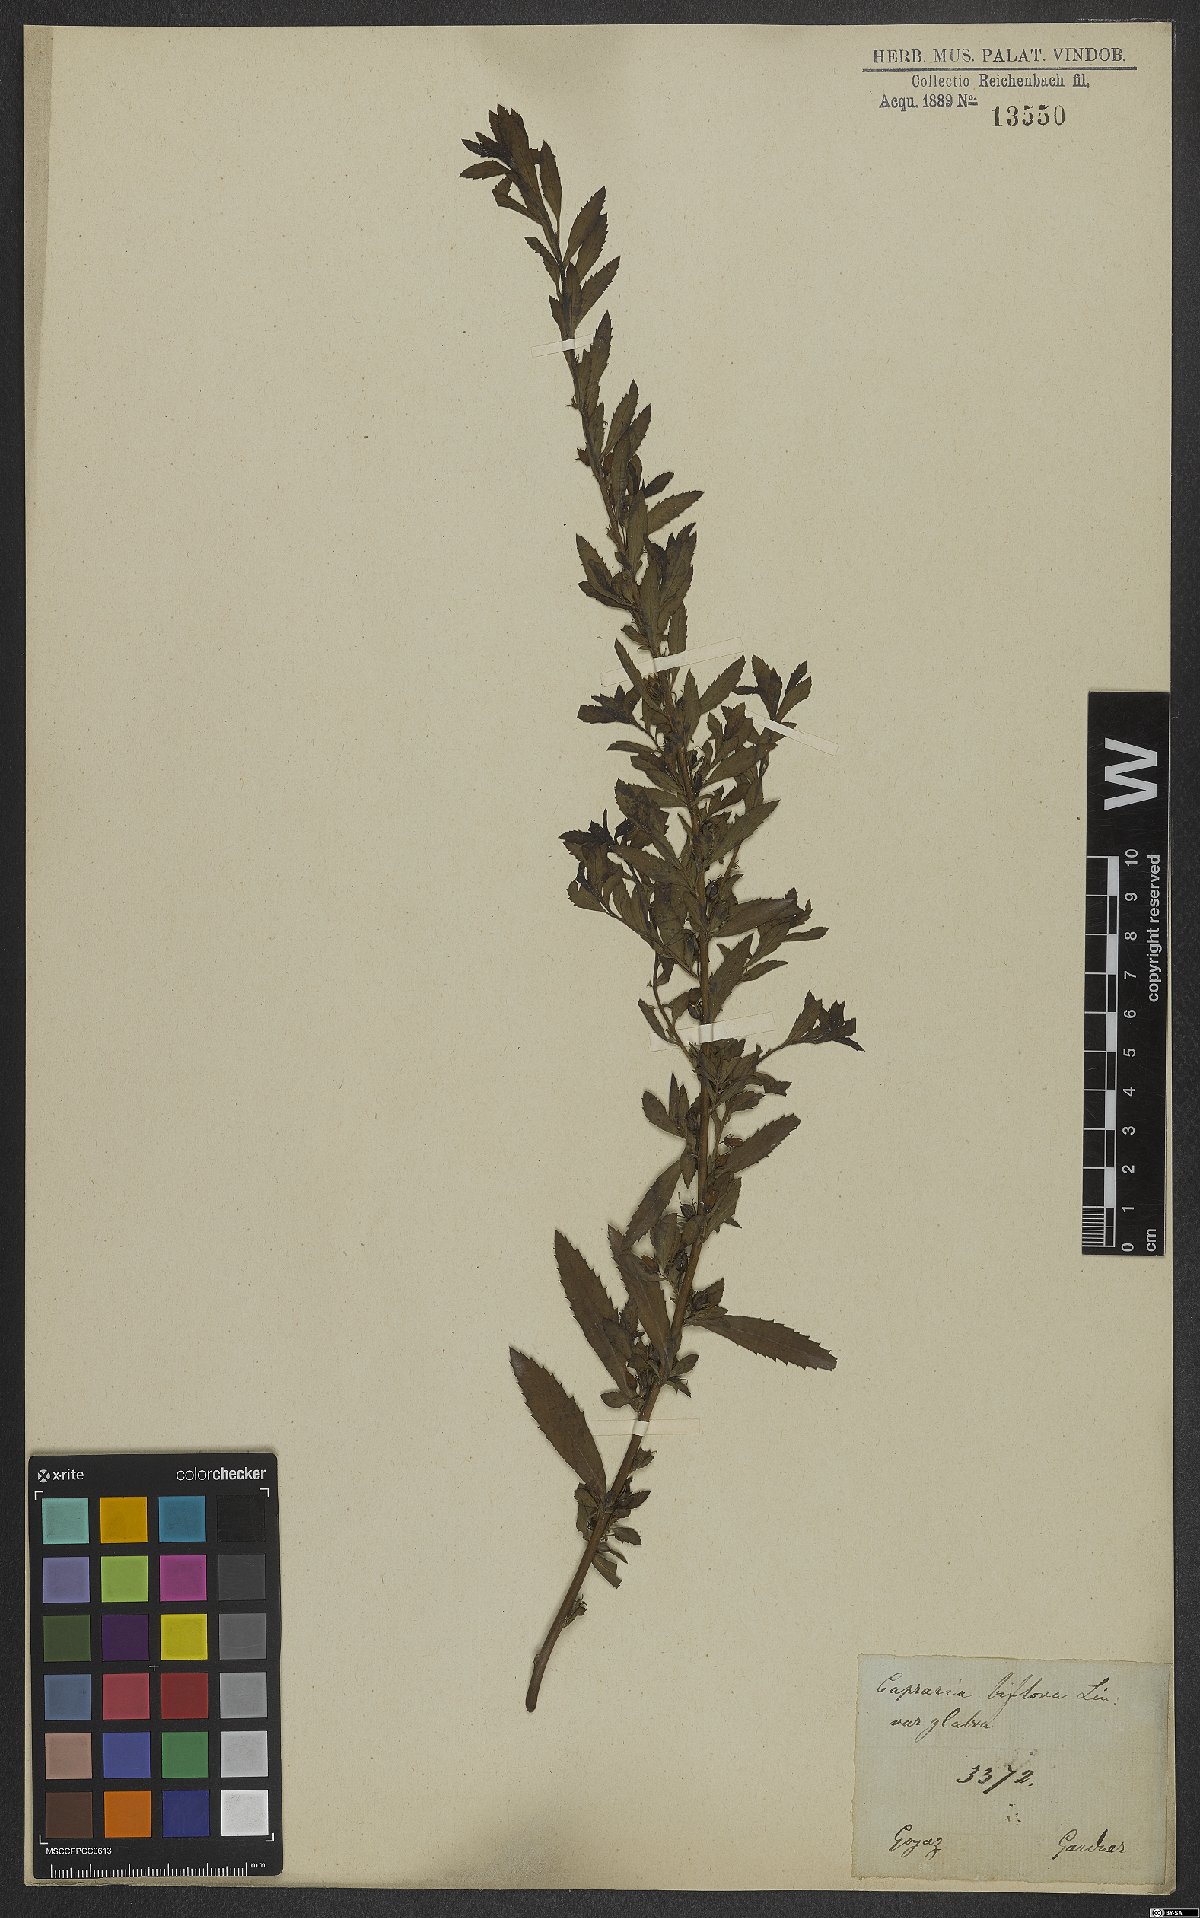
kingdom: Plantae
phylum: Tracheophyta
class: Magnoliopsida
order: Lamiales
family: Scrophulariaceae
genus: Capraria
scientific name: Capraria biflora
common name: Goatweed
